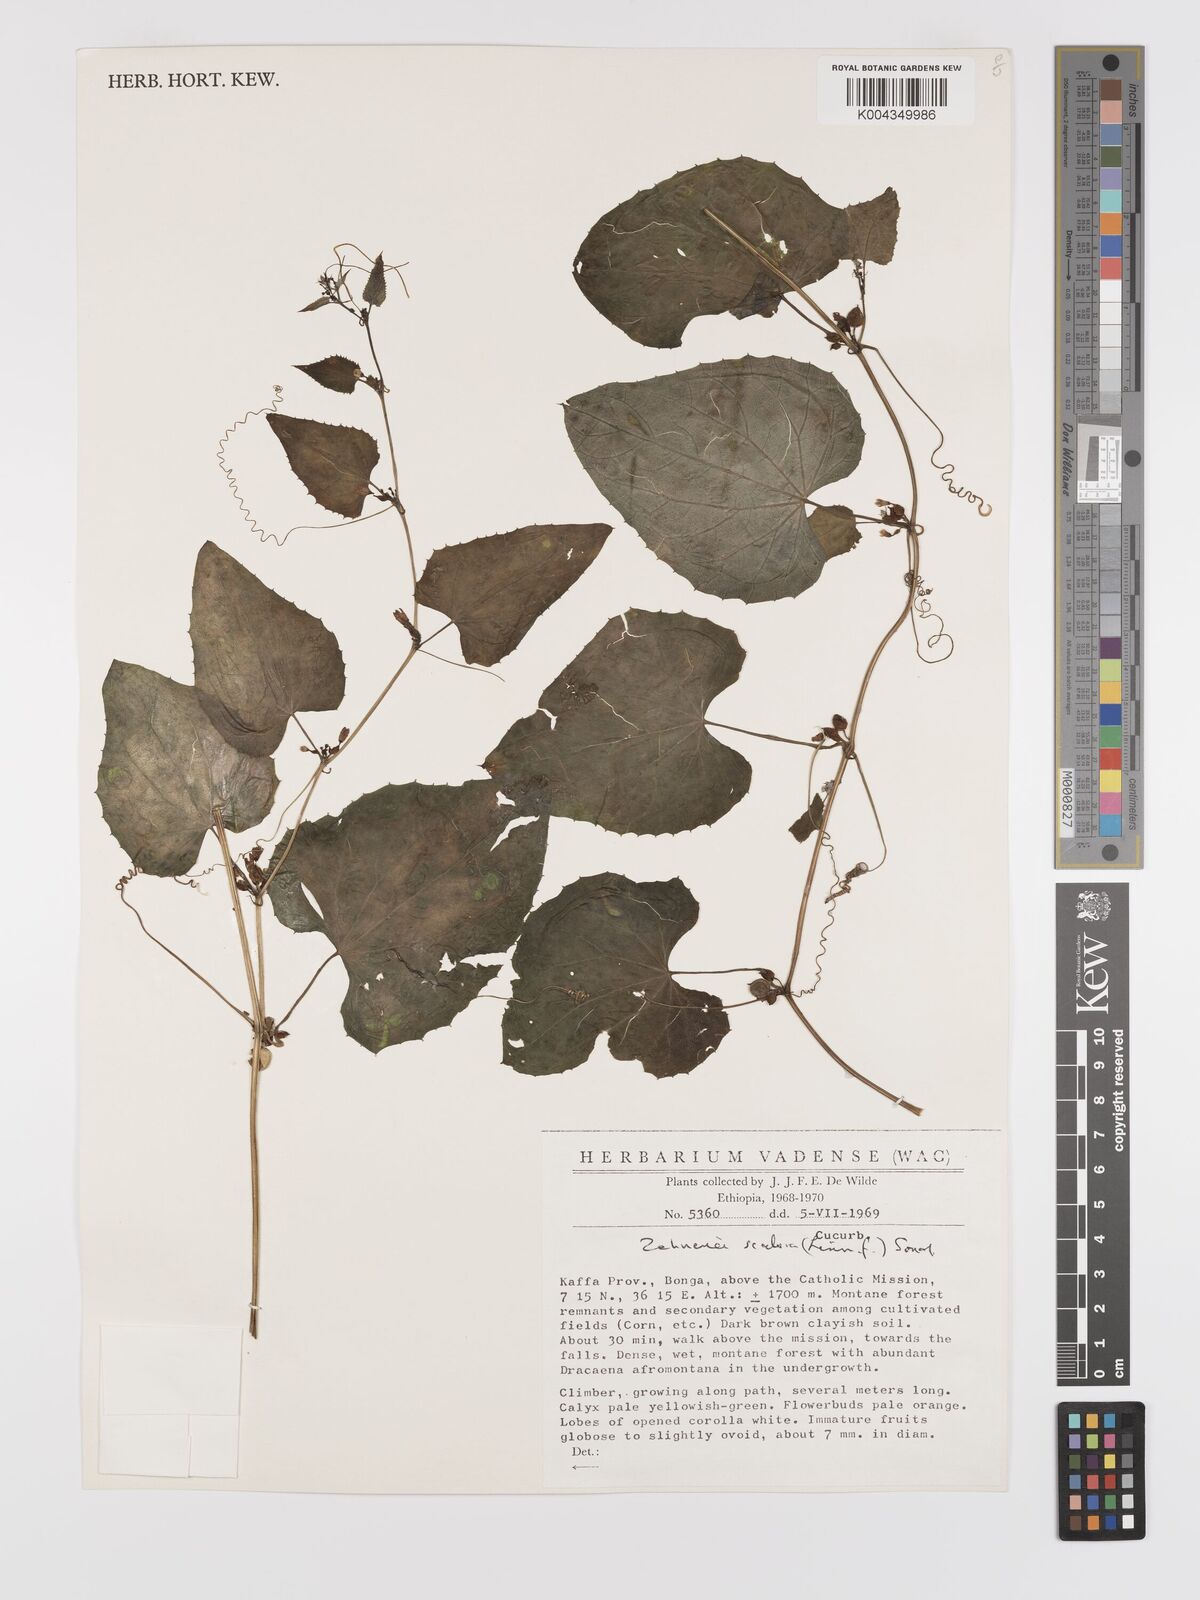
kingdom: Plantae
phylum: Tracheophyta
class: Magnoliopsida
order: Cucurbitales
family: Cucurbitaceae
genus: Zehneria
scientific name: Zehneria scabra
